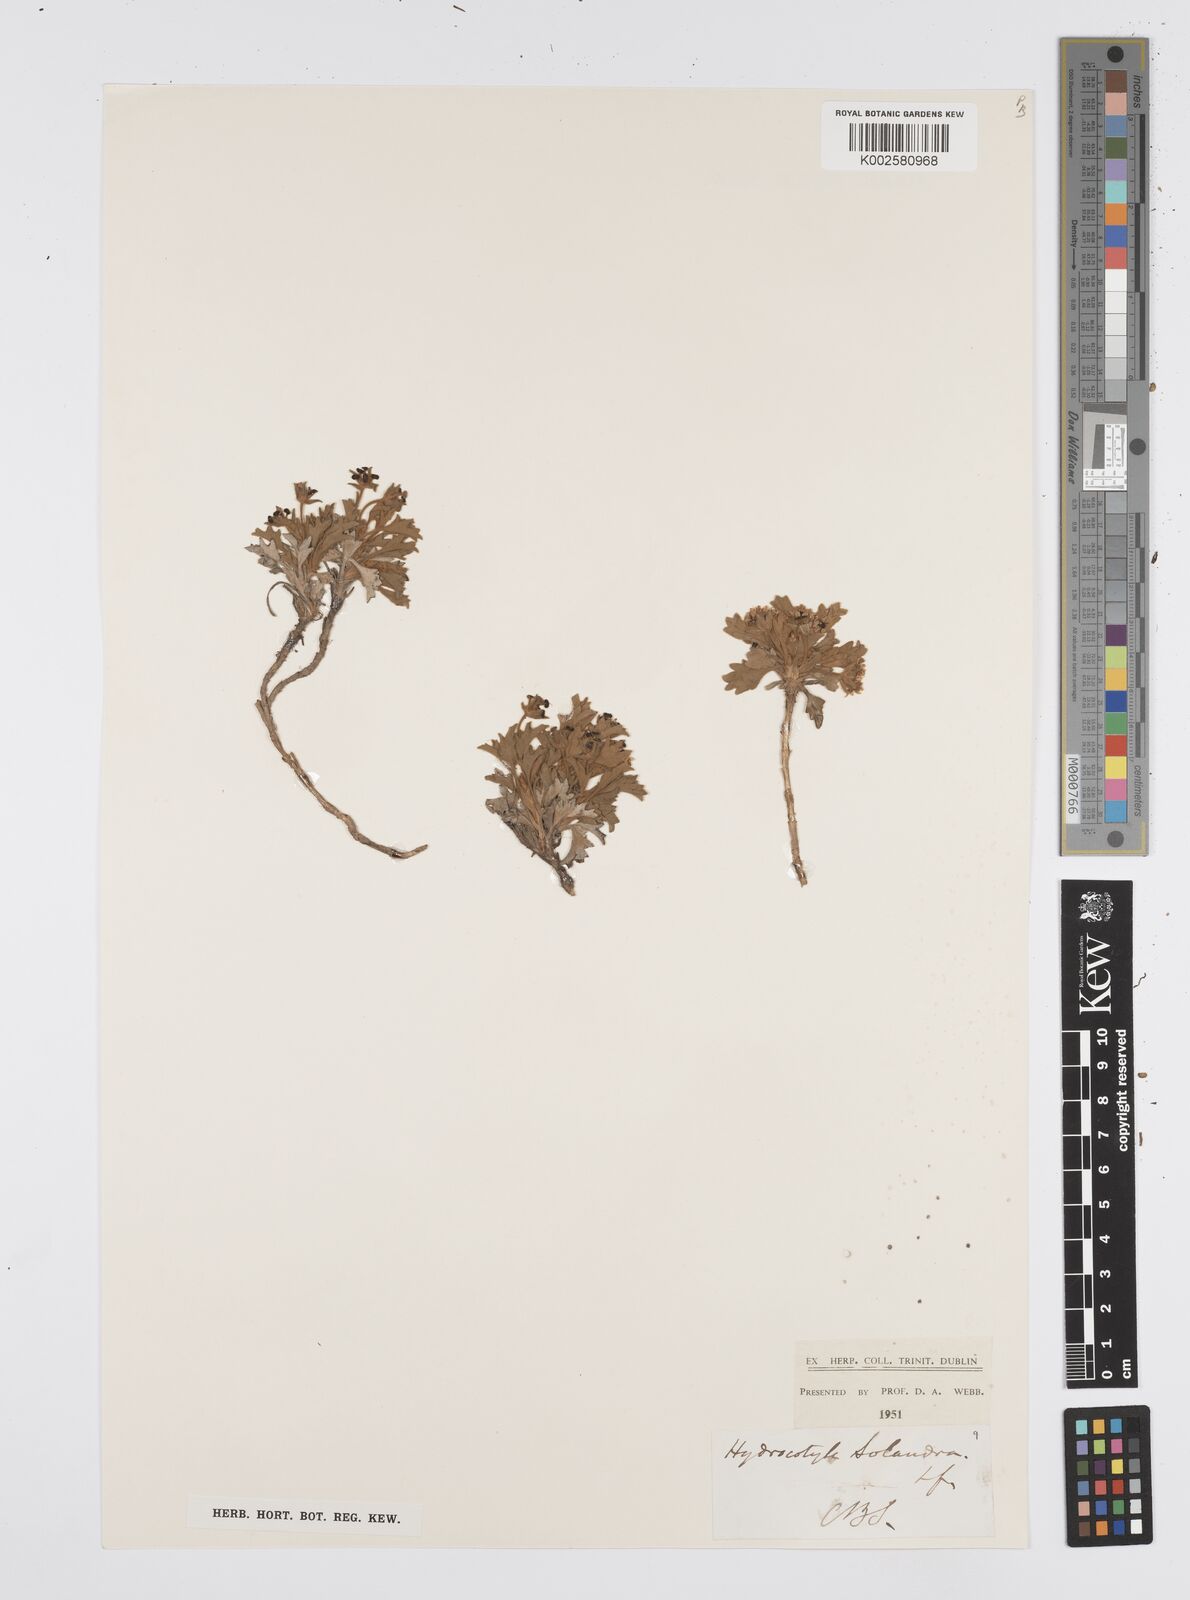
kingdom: Plantae
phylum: Tracheophyta
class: Magnoliopsida
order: Apiales
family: Apiaceae
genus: Centella
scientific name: Centella capensis
